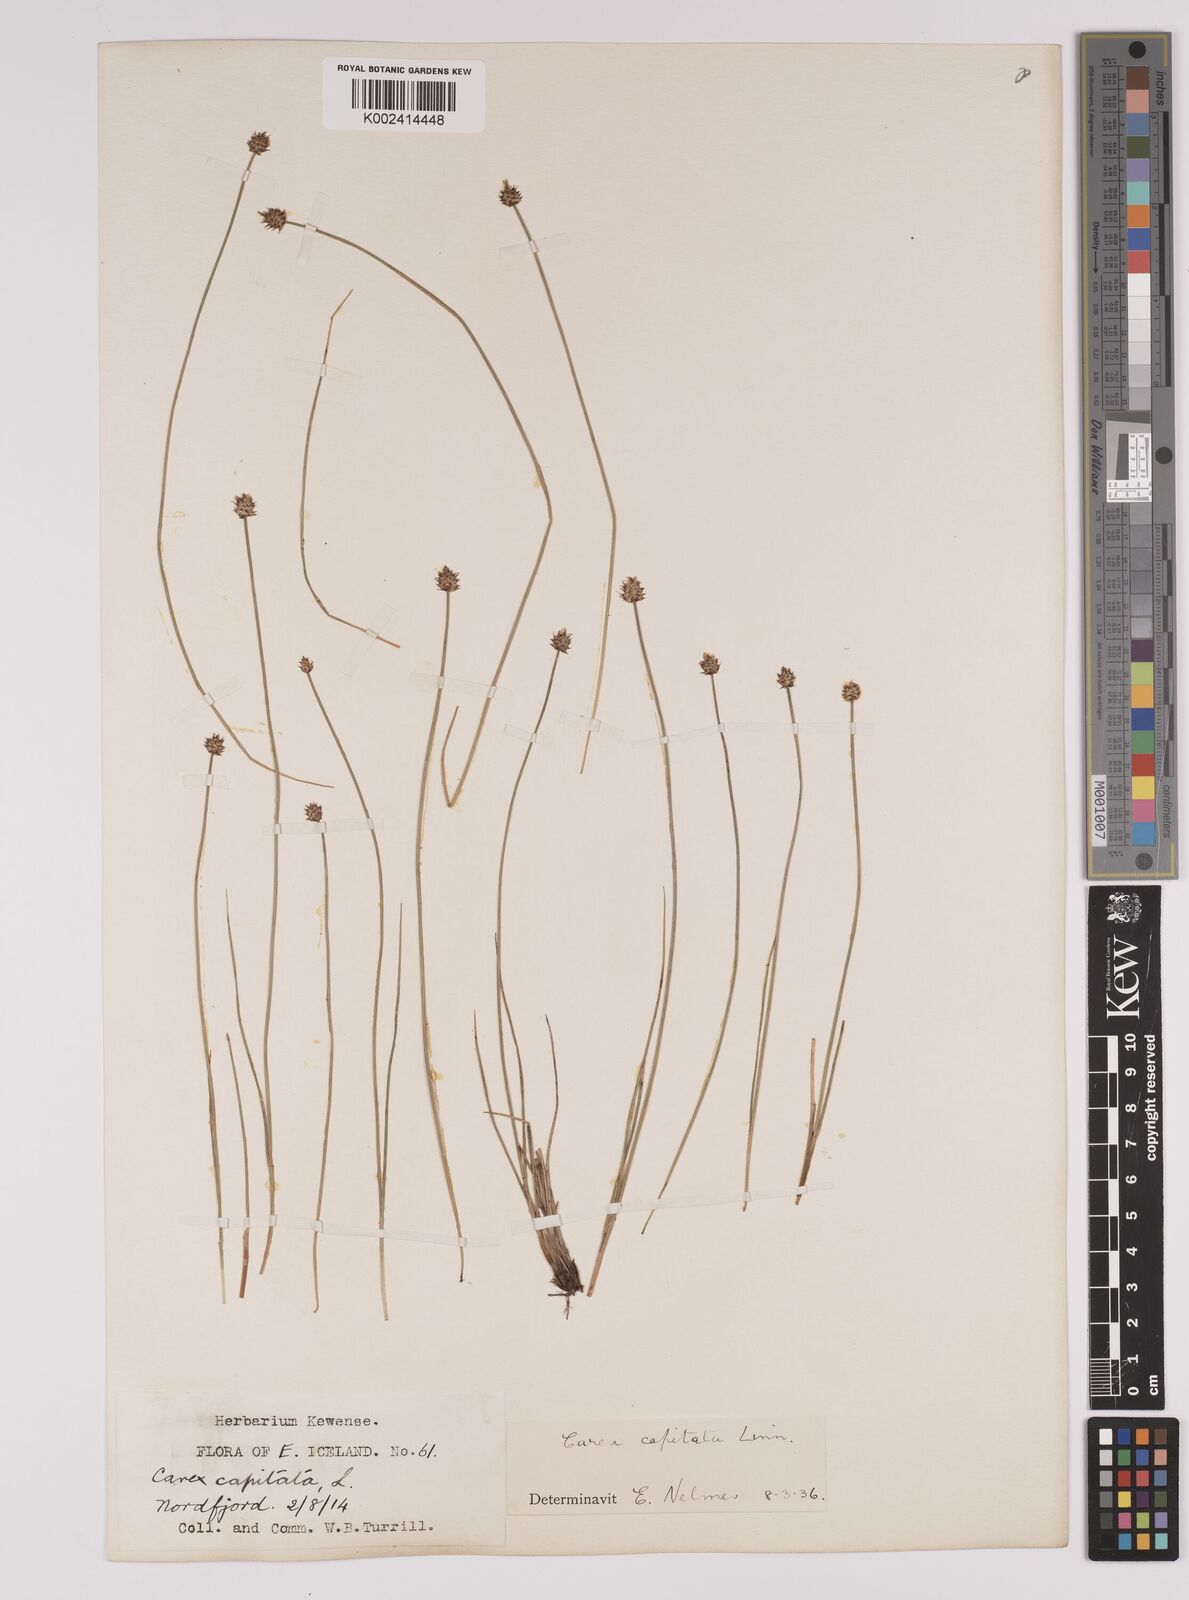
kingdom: Plantae
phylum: Tracheophyta
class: Liliopsida
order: Poales
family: Cyperaceae
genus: Carex
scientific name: Carex capitata
